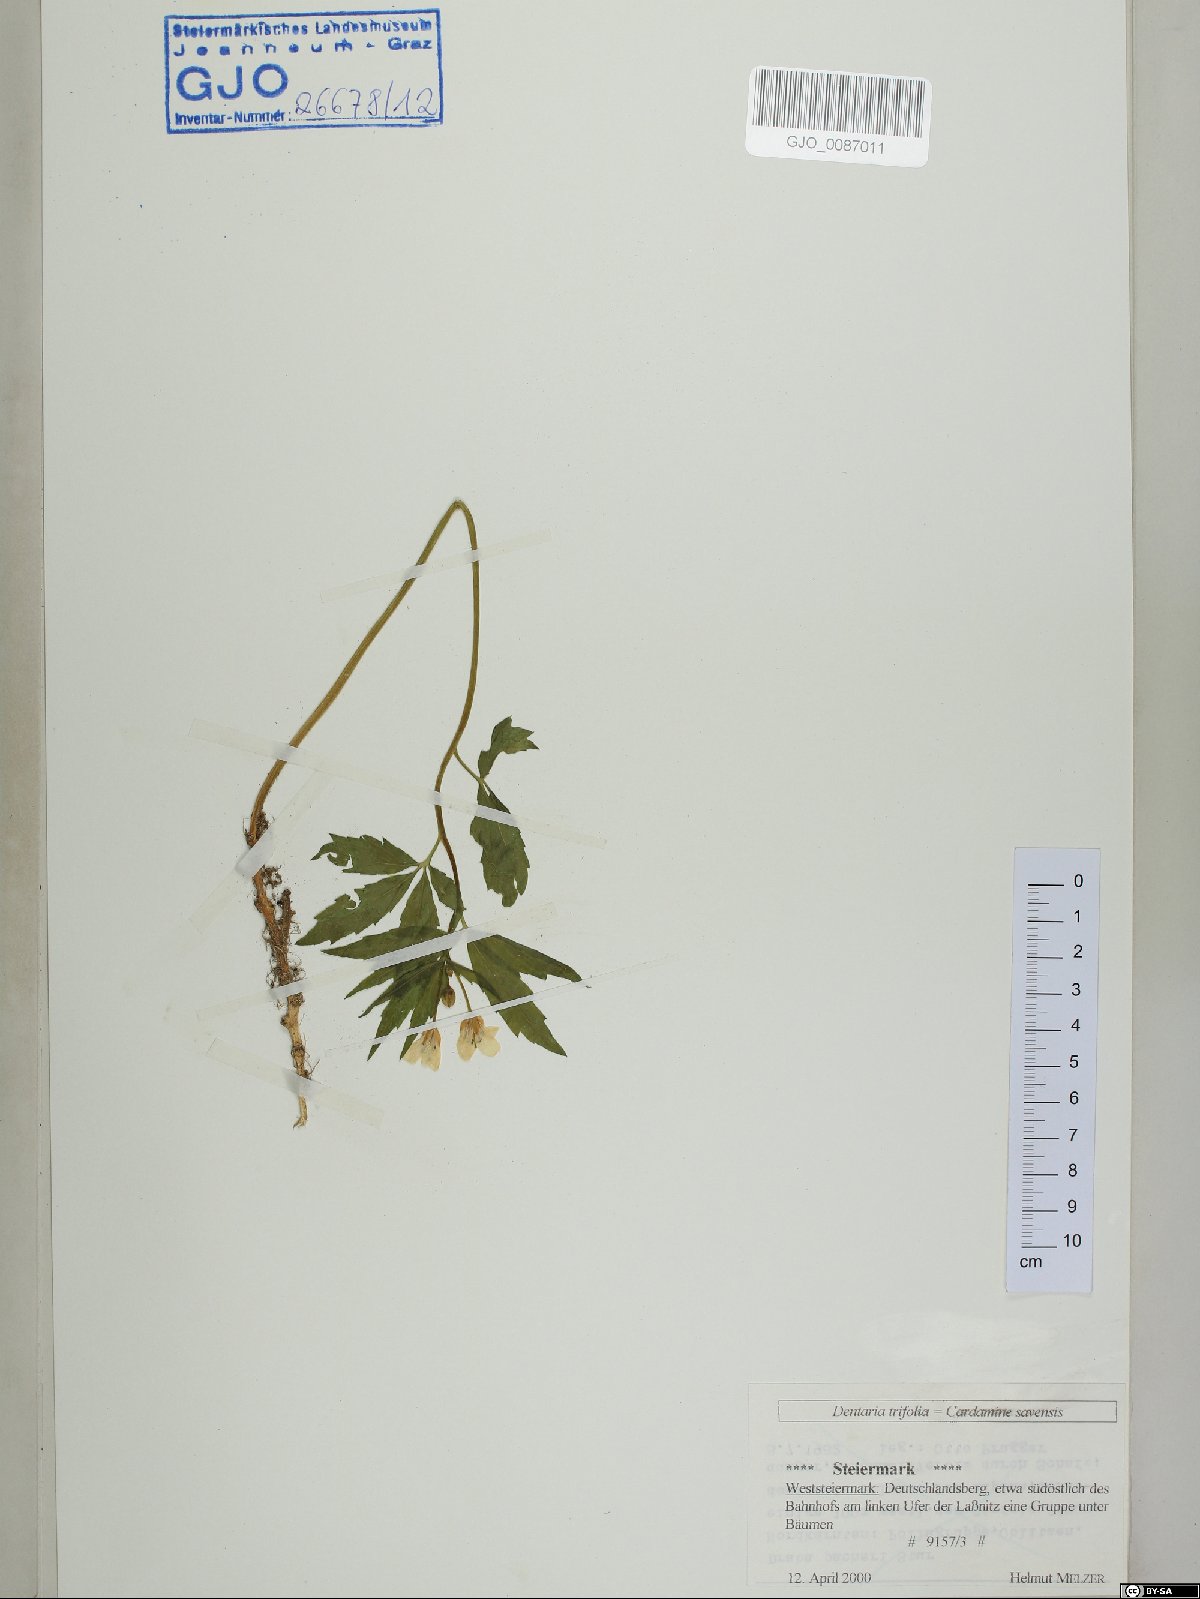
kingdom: Plantae
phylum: Tracheophyta
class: Magnoliopsida
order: Brassicales
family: Brassicaceae
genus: Cardamine
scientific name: Cardamine waldsteinii
